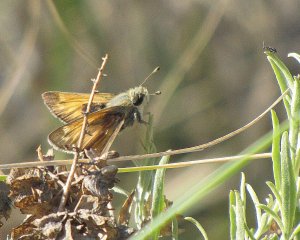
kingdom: Animalia
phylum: Arthropoda
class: Insecta
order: Lepidoptera
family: Hesperiidae
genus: Hesperia
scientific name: Hesperia pahaska
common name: Pahaska Skipper
